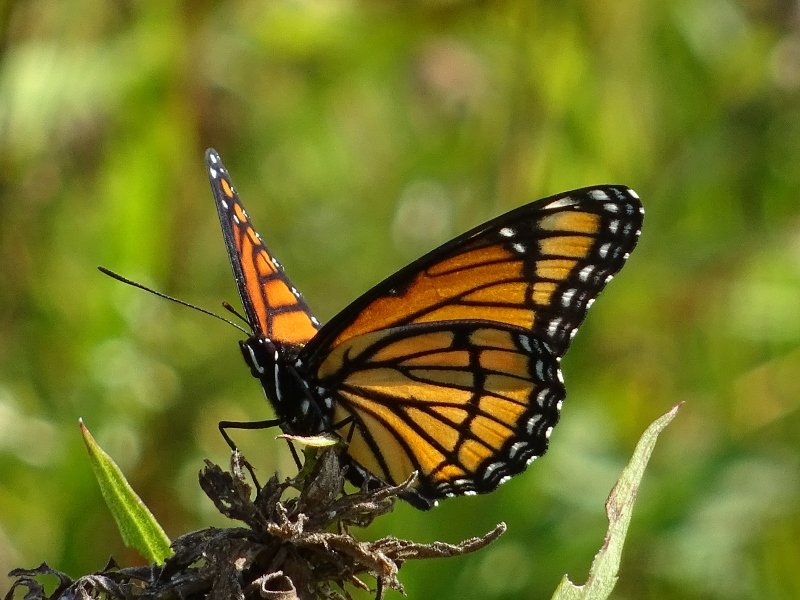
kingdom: Animalia
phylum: Arthropoda
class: Insecta
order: Lepidoptera
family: Nymphalidae
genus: Limenitis
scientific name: Limenitis archippus
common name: Viceroy
